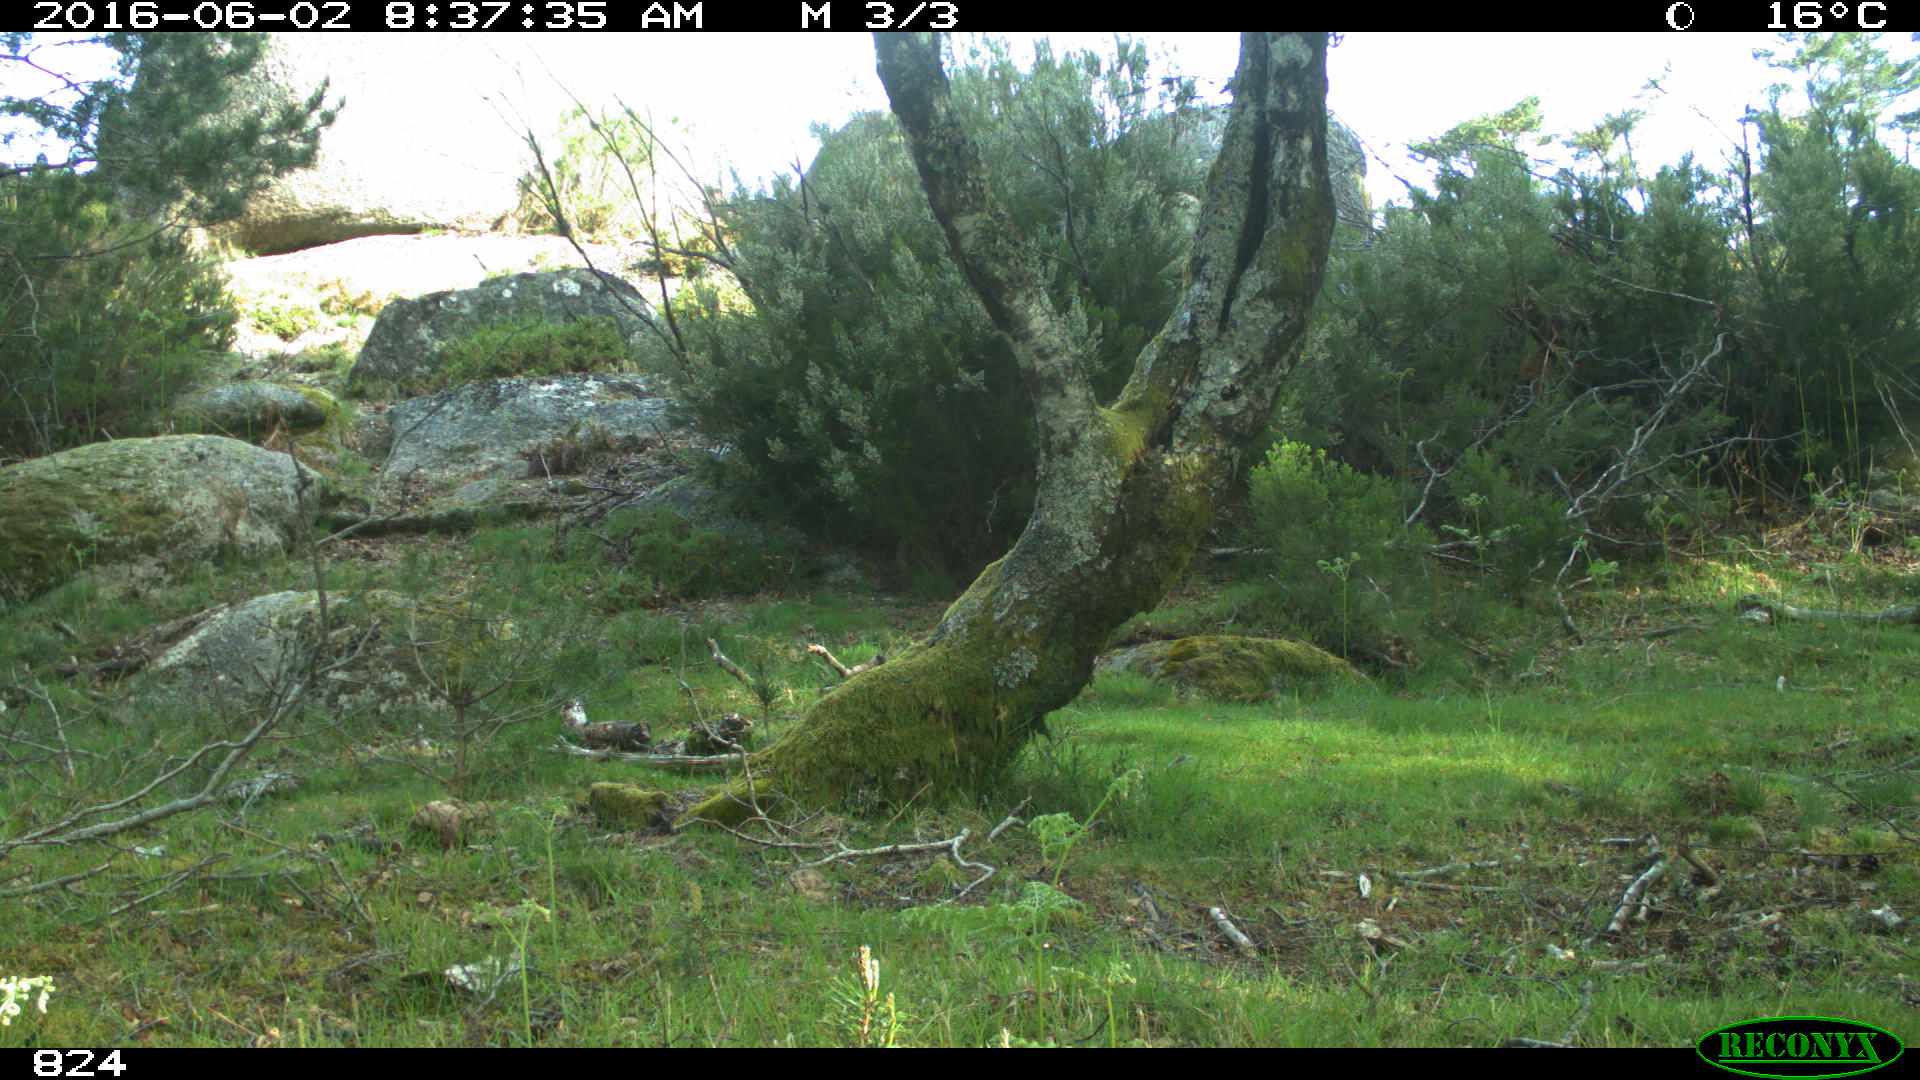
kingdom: Animalia
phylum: Chordata
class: Mammalia
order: Perissodactyla
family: Equidae
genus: Equus
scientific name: Equus caballus
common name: Horse
